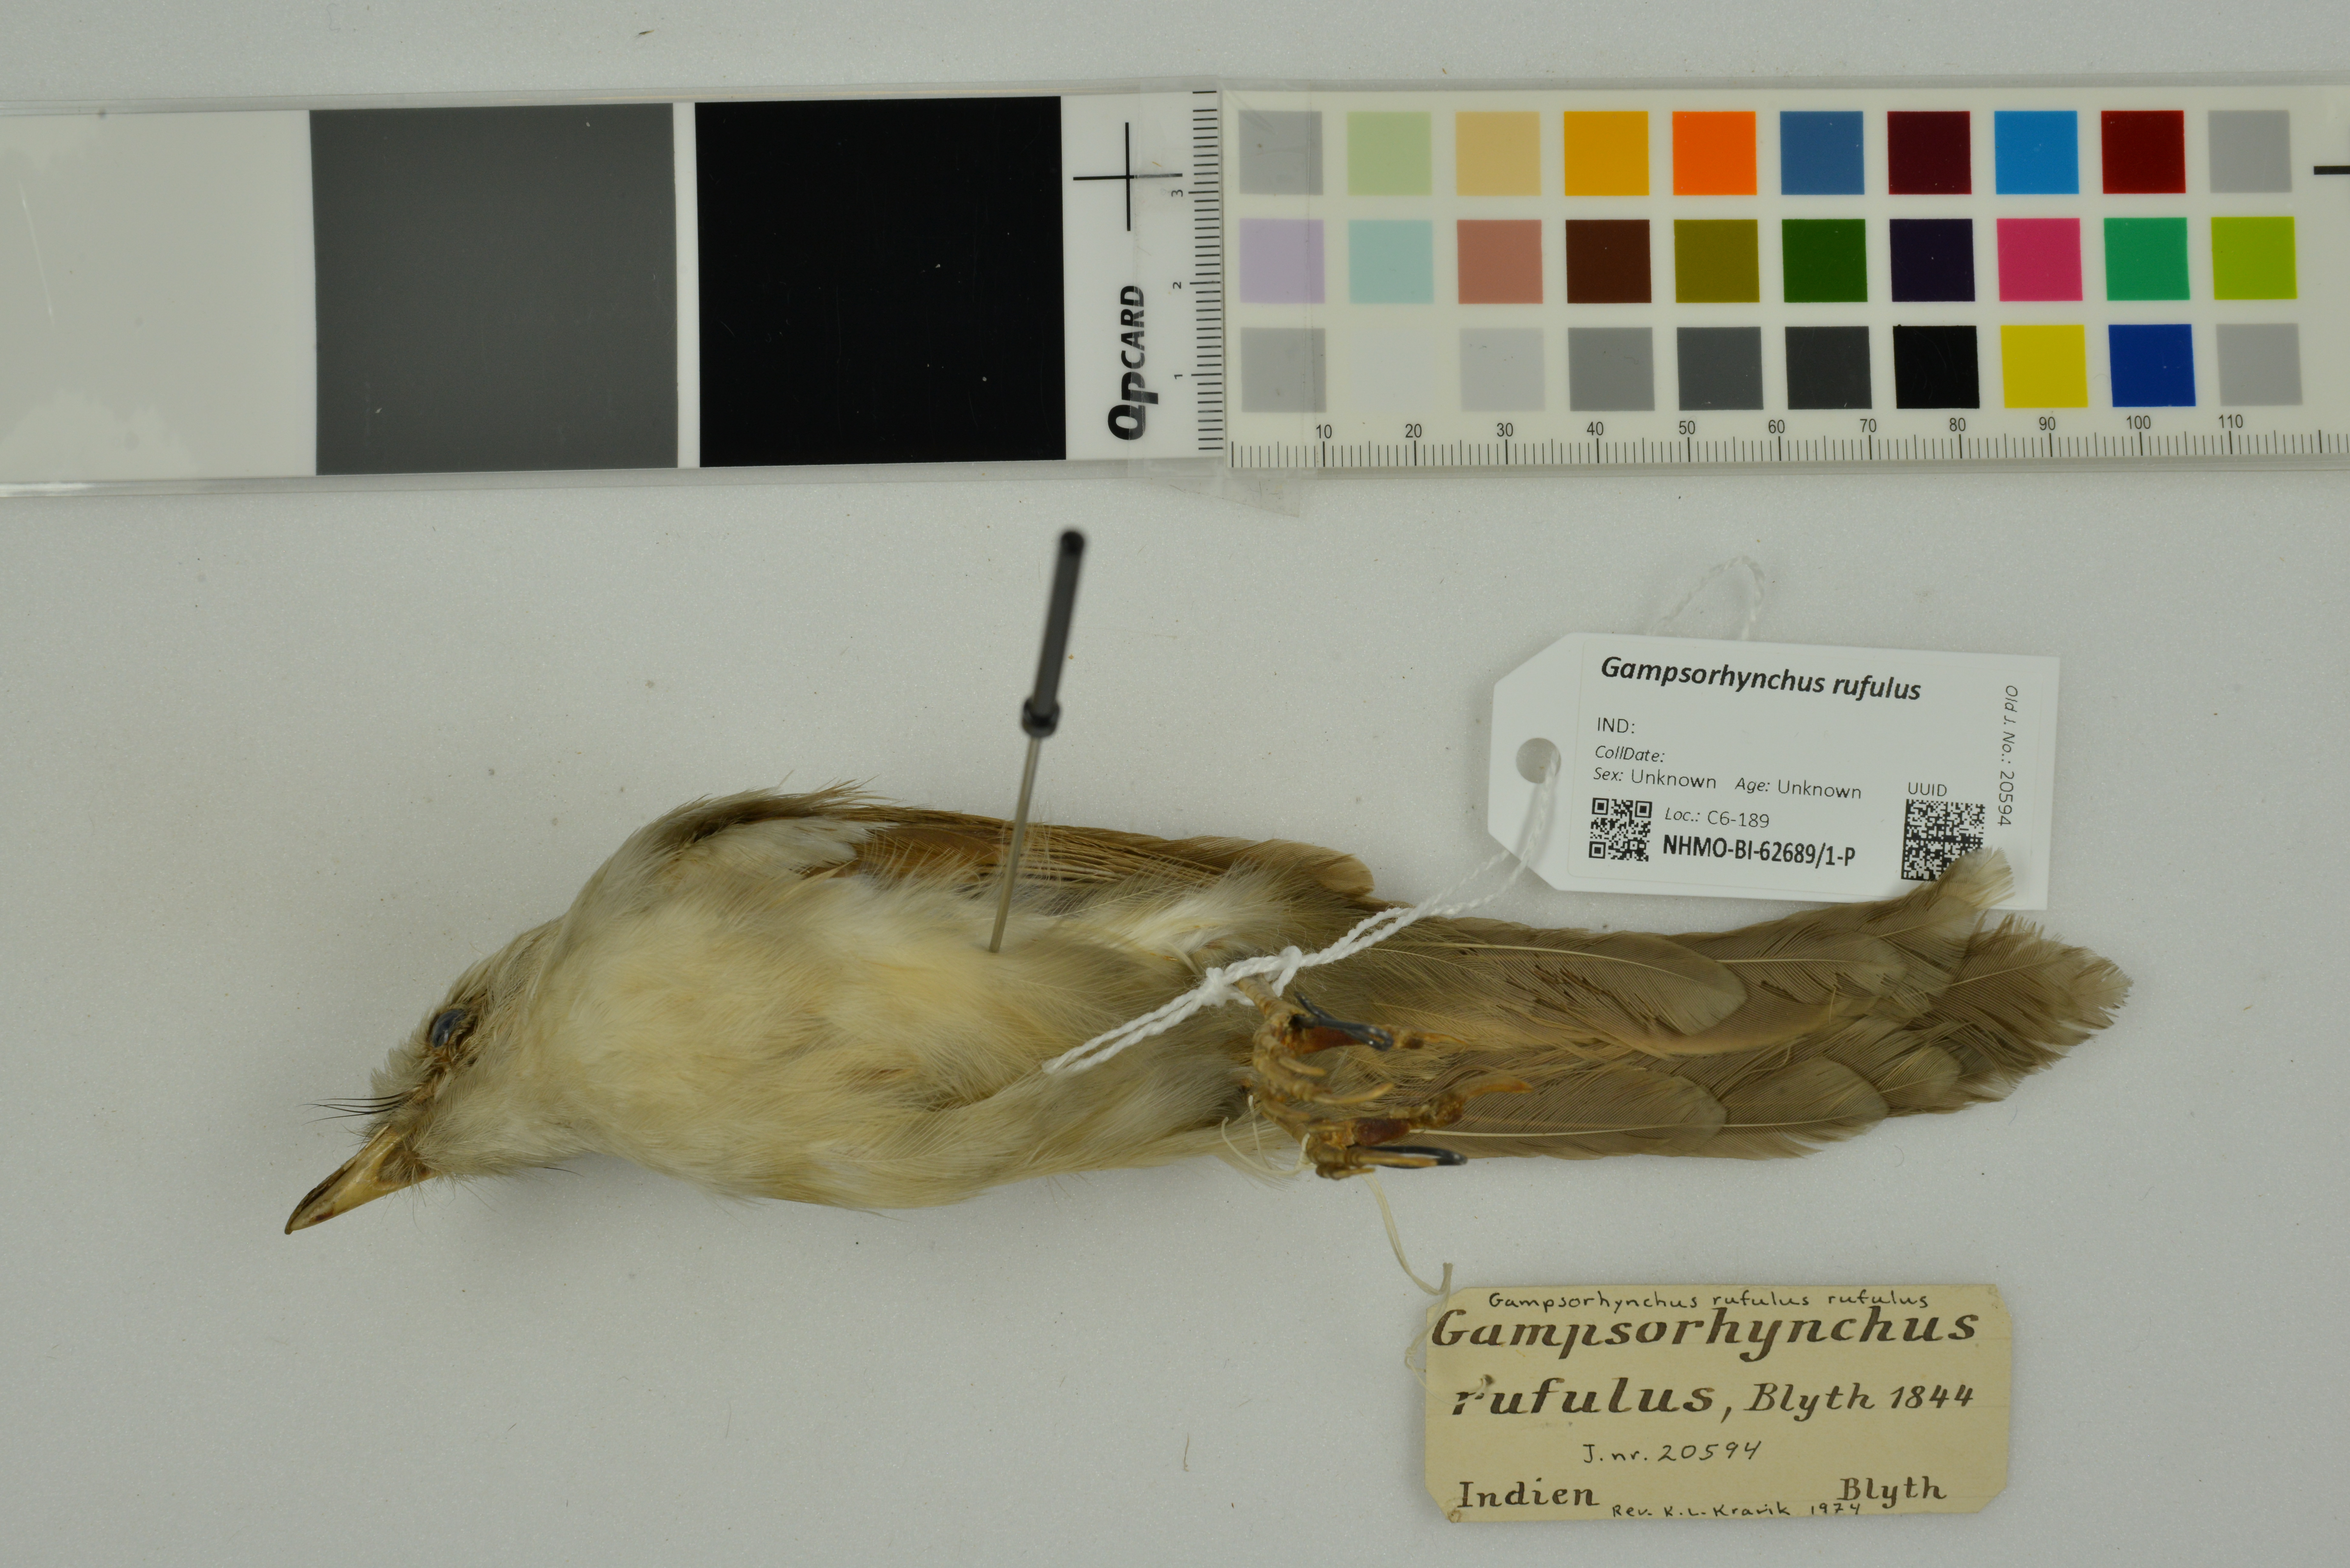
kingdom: Animalia
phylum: Chordata
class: Aves
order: Passeriformes
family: Pellorneidae
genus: Gampsorhynchus
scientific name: Gampsorhynchus rufulus
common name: White-hooded babbler
